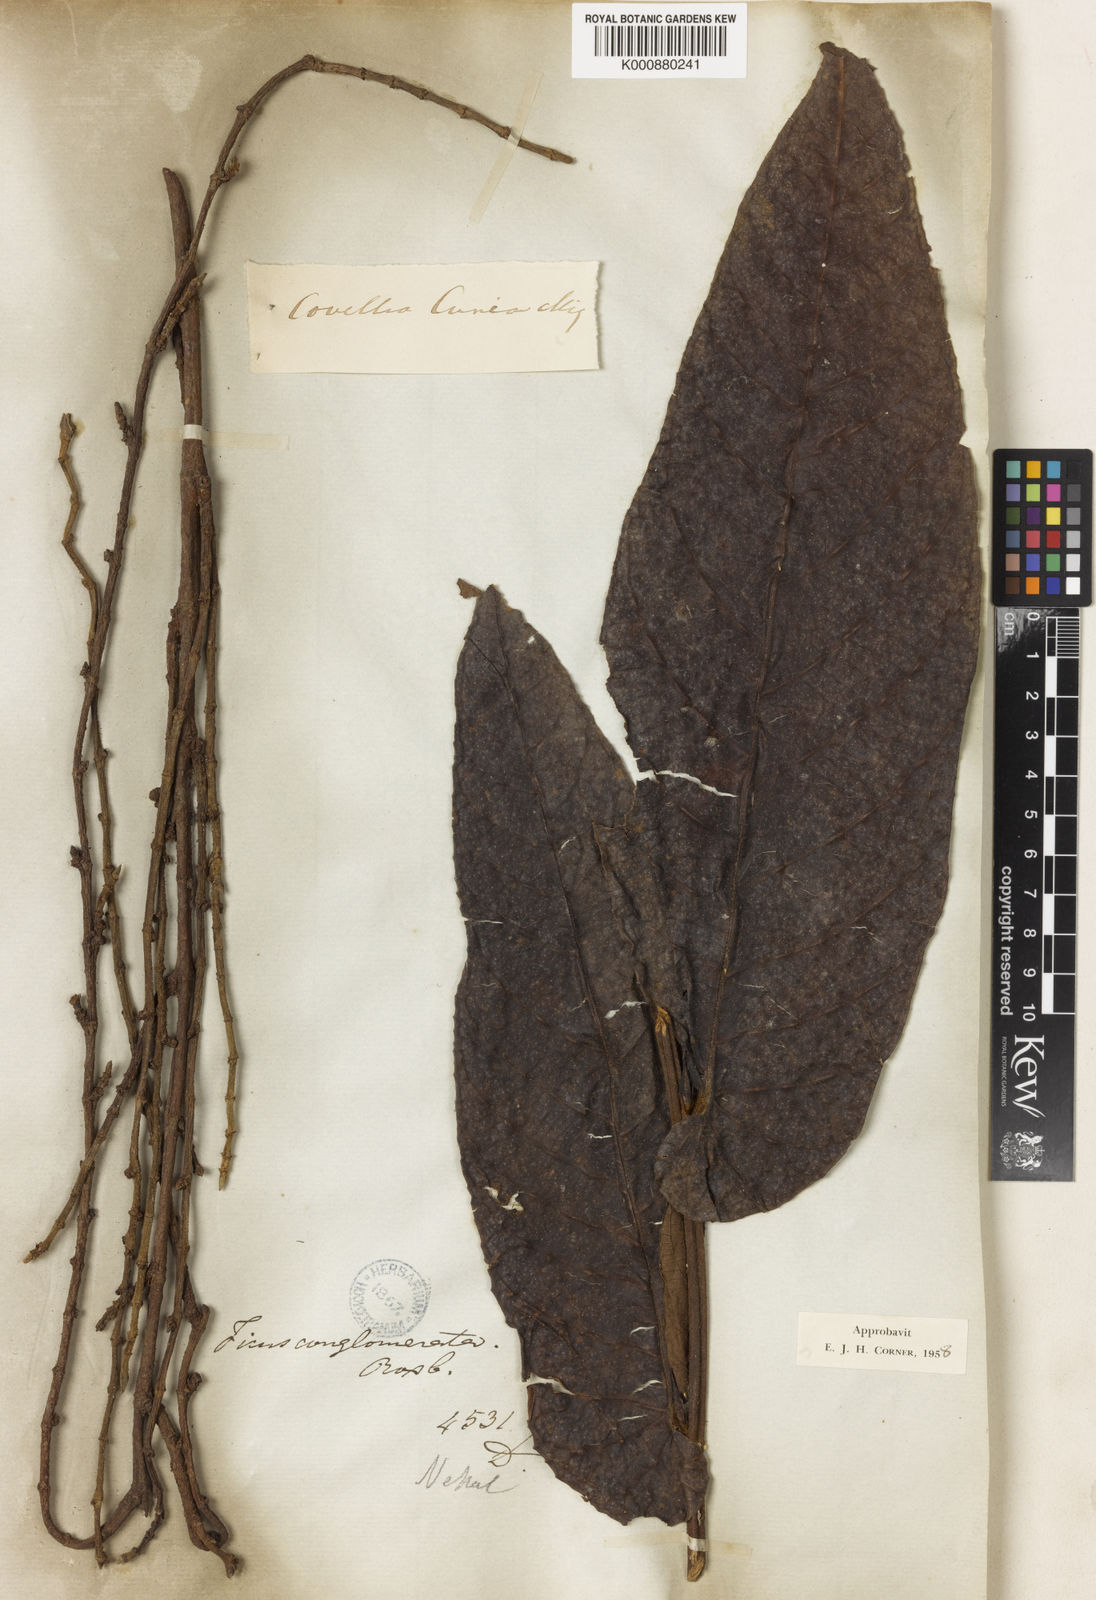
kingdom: Plantae
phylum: Tracheophyta
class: Magnoliopsida
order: Rosales
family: Moraceae
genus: Ficus
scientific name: Ficus semicordata
